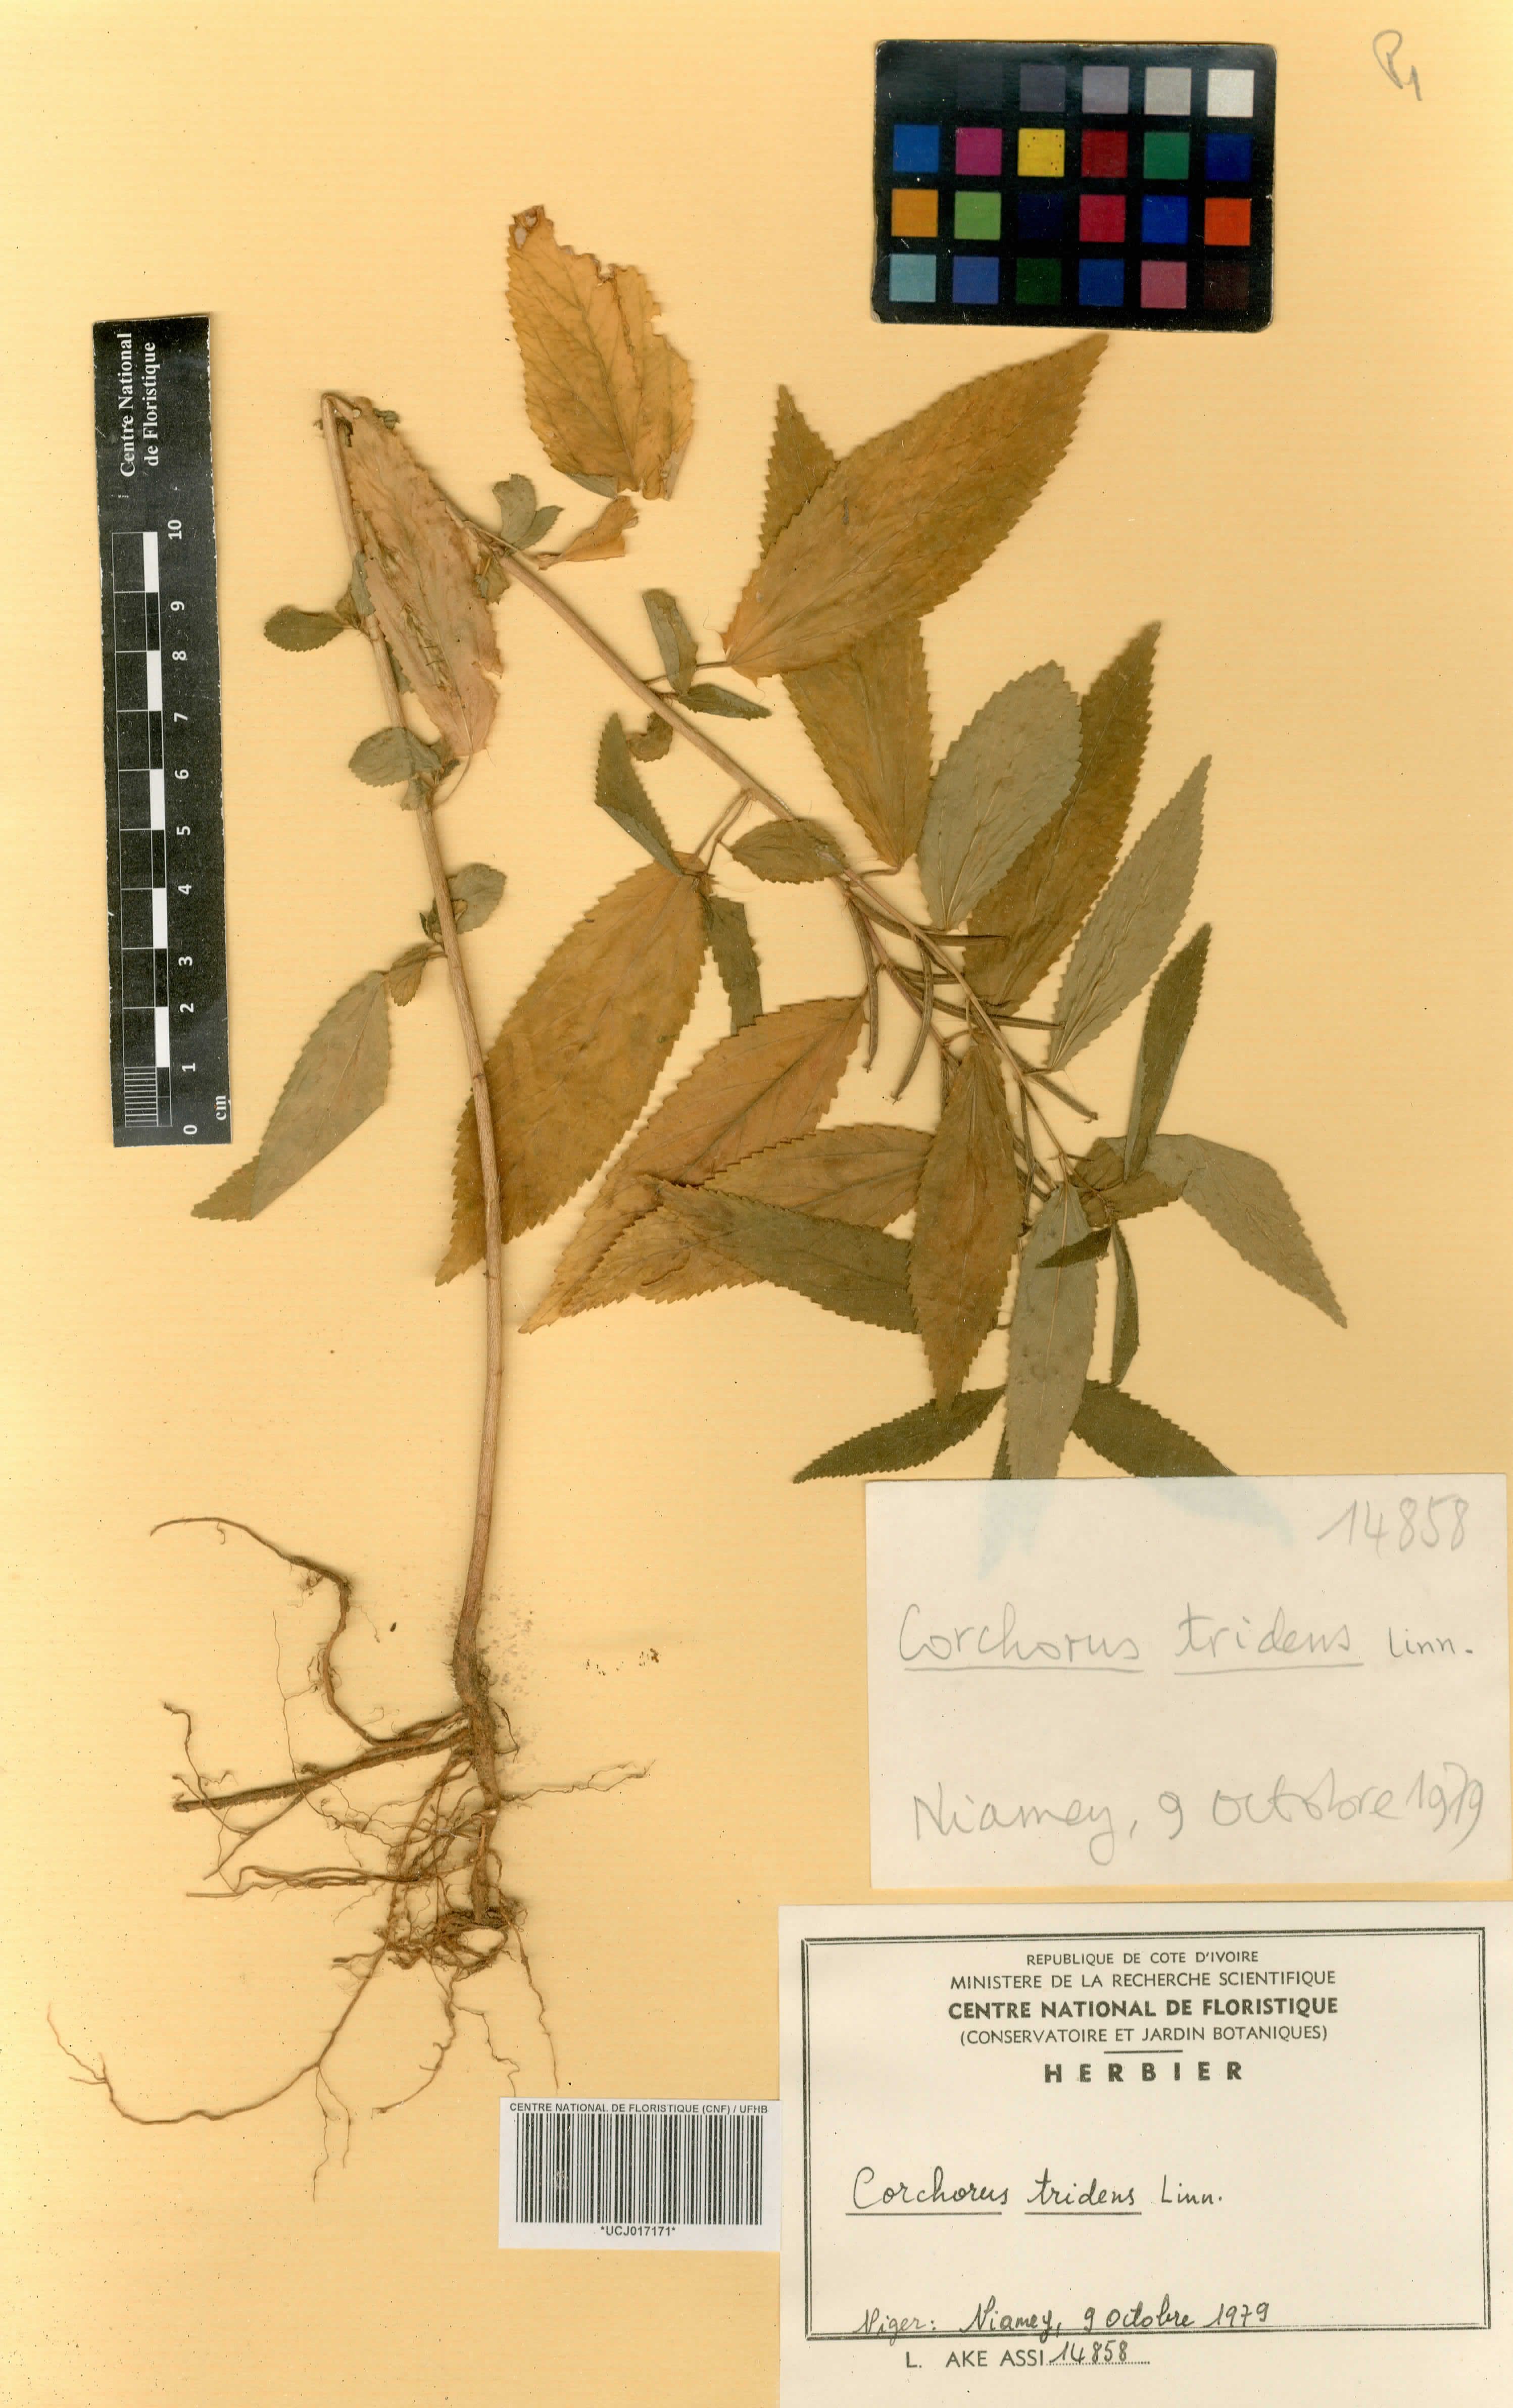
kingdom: Plantae
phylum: Tracheophyta
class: Magnoliopsida
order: Malvales
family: Malvaceae
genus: Corchorus
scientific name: Corchorus tridens
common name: Wild jute
